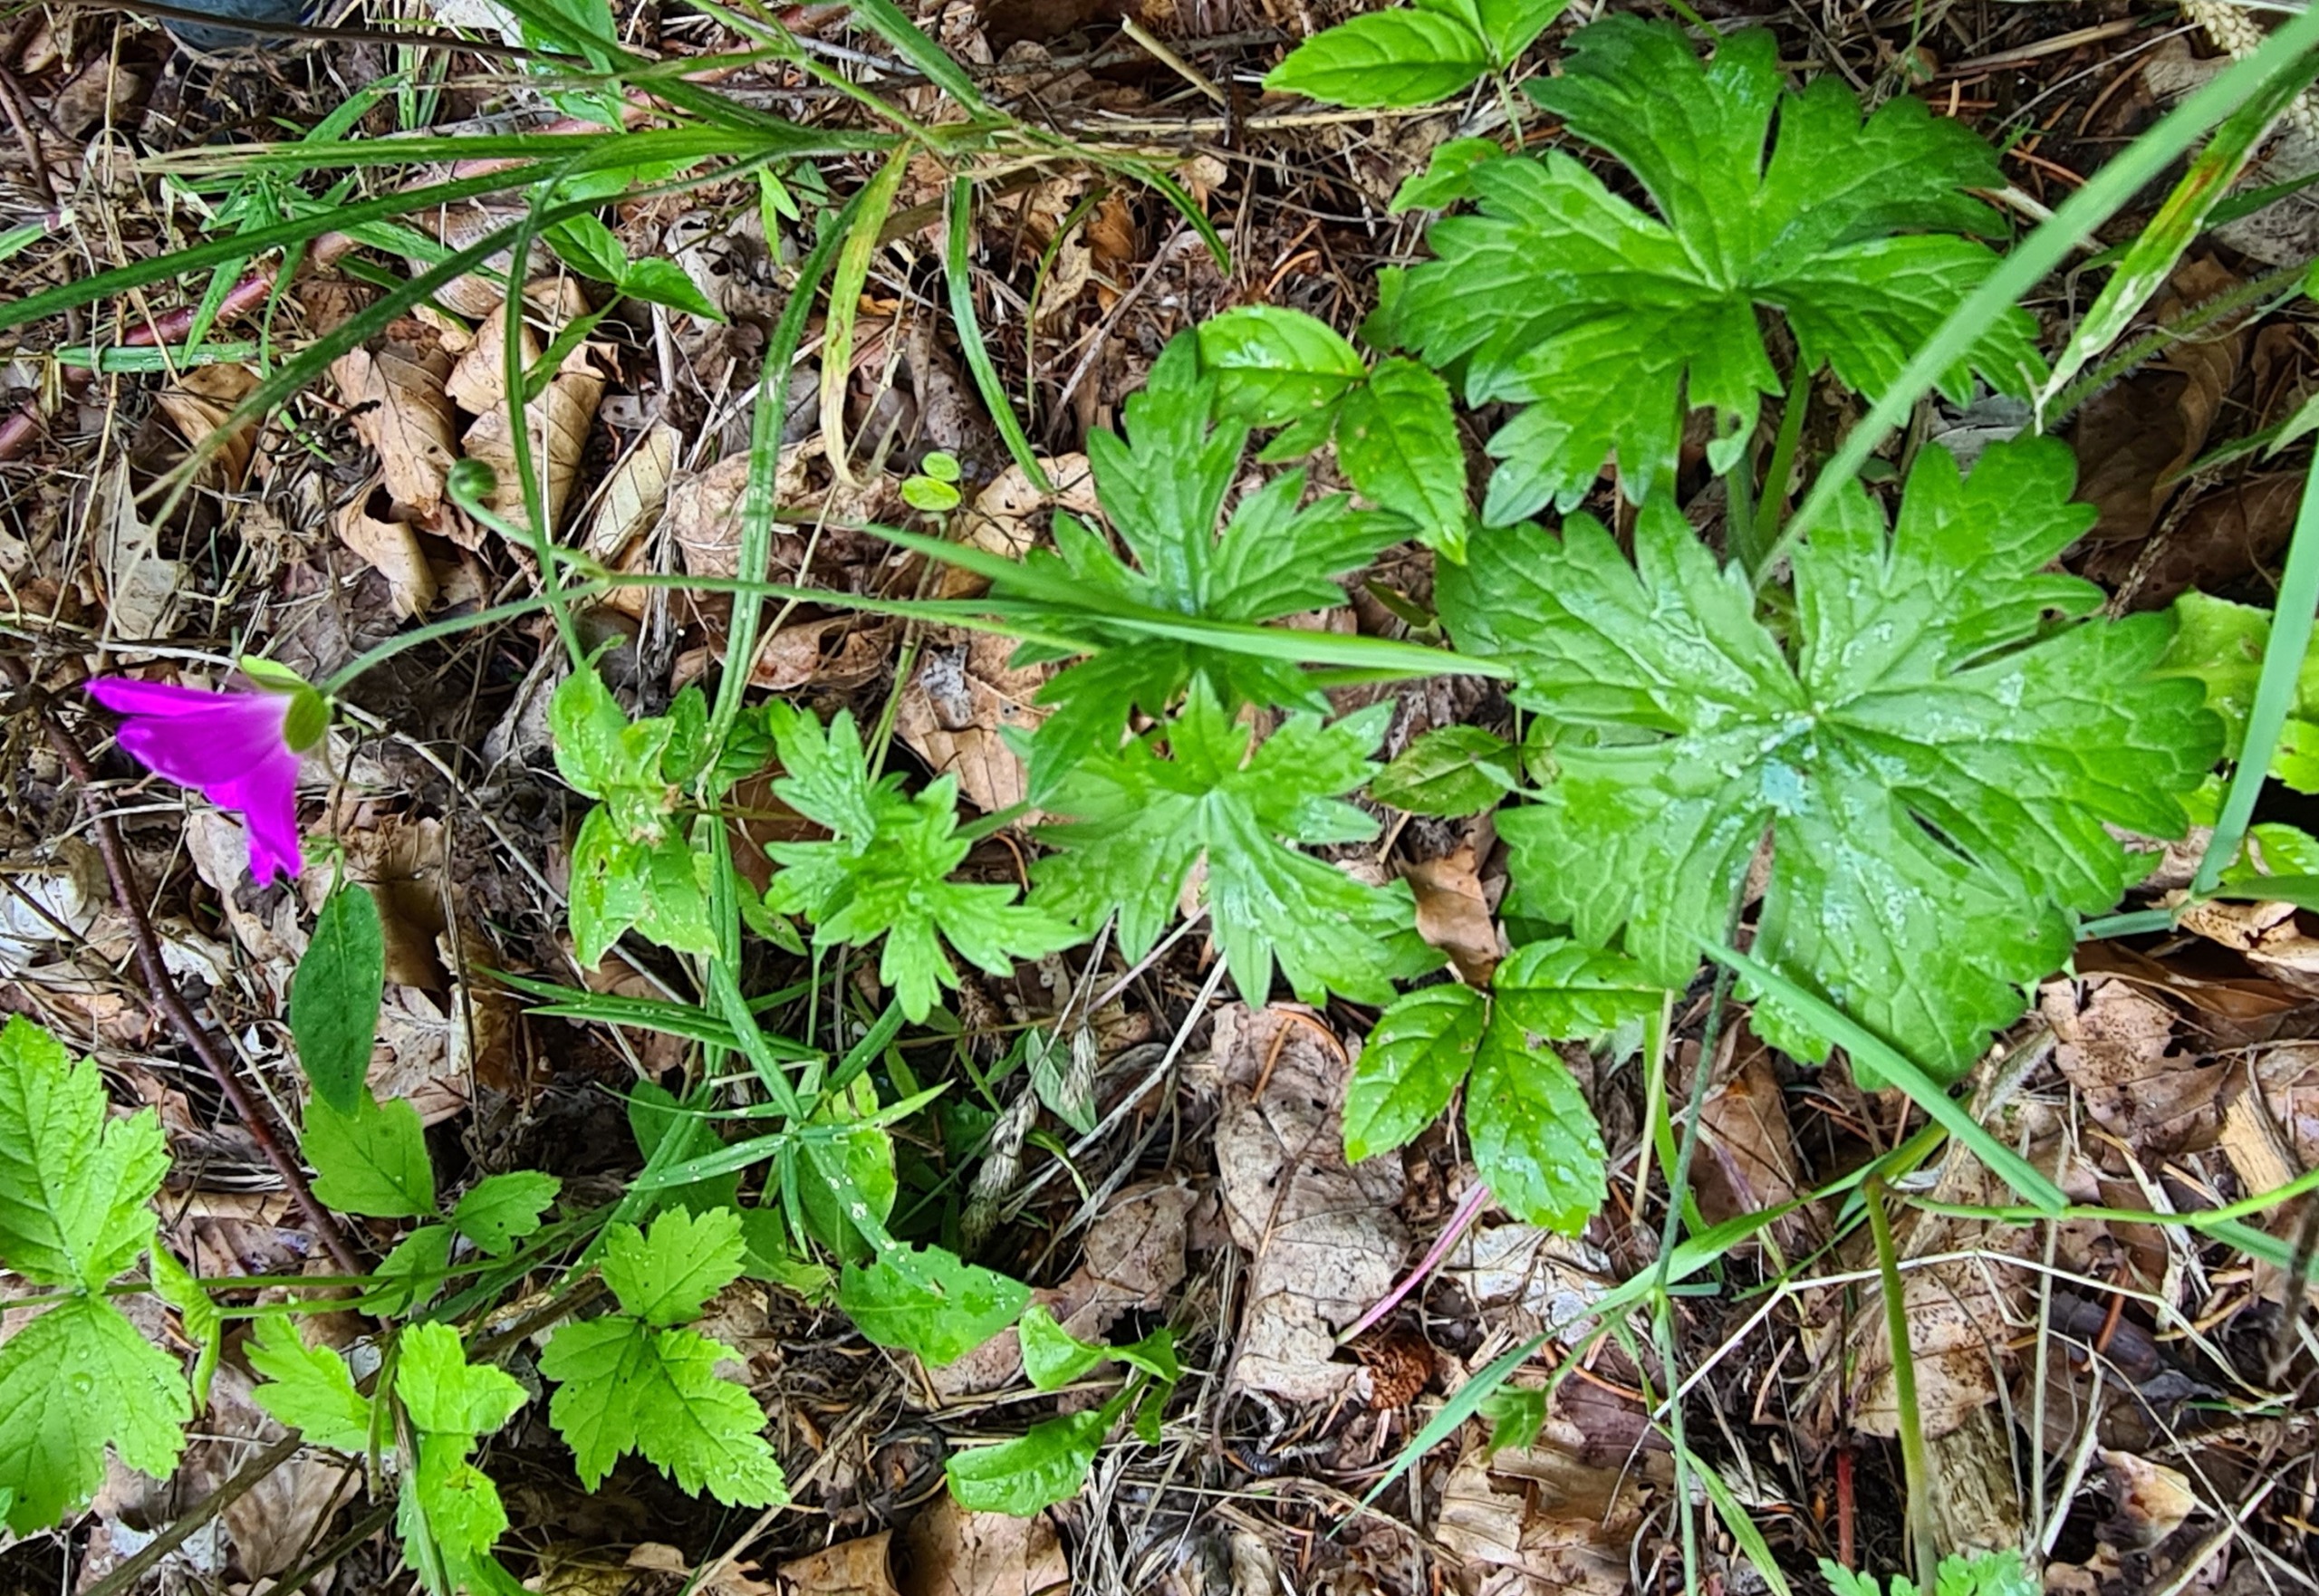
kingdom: Plantae
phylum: Tracheophyta
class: Magnoliopsida
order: Geraniales
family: Geraniaceae
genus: Geranium
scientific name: Geranium palustre
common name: Kær-storkenæb
